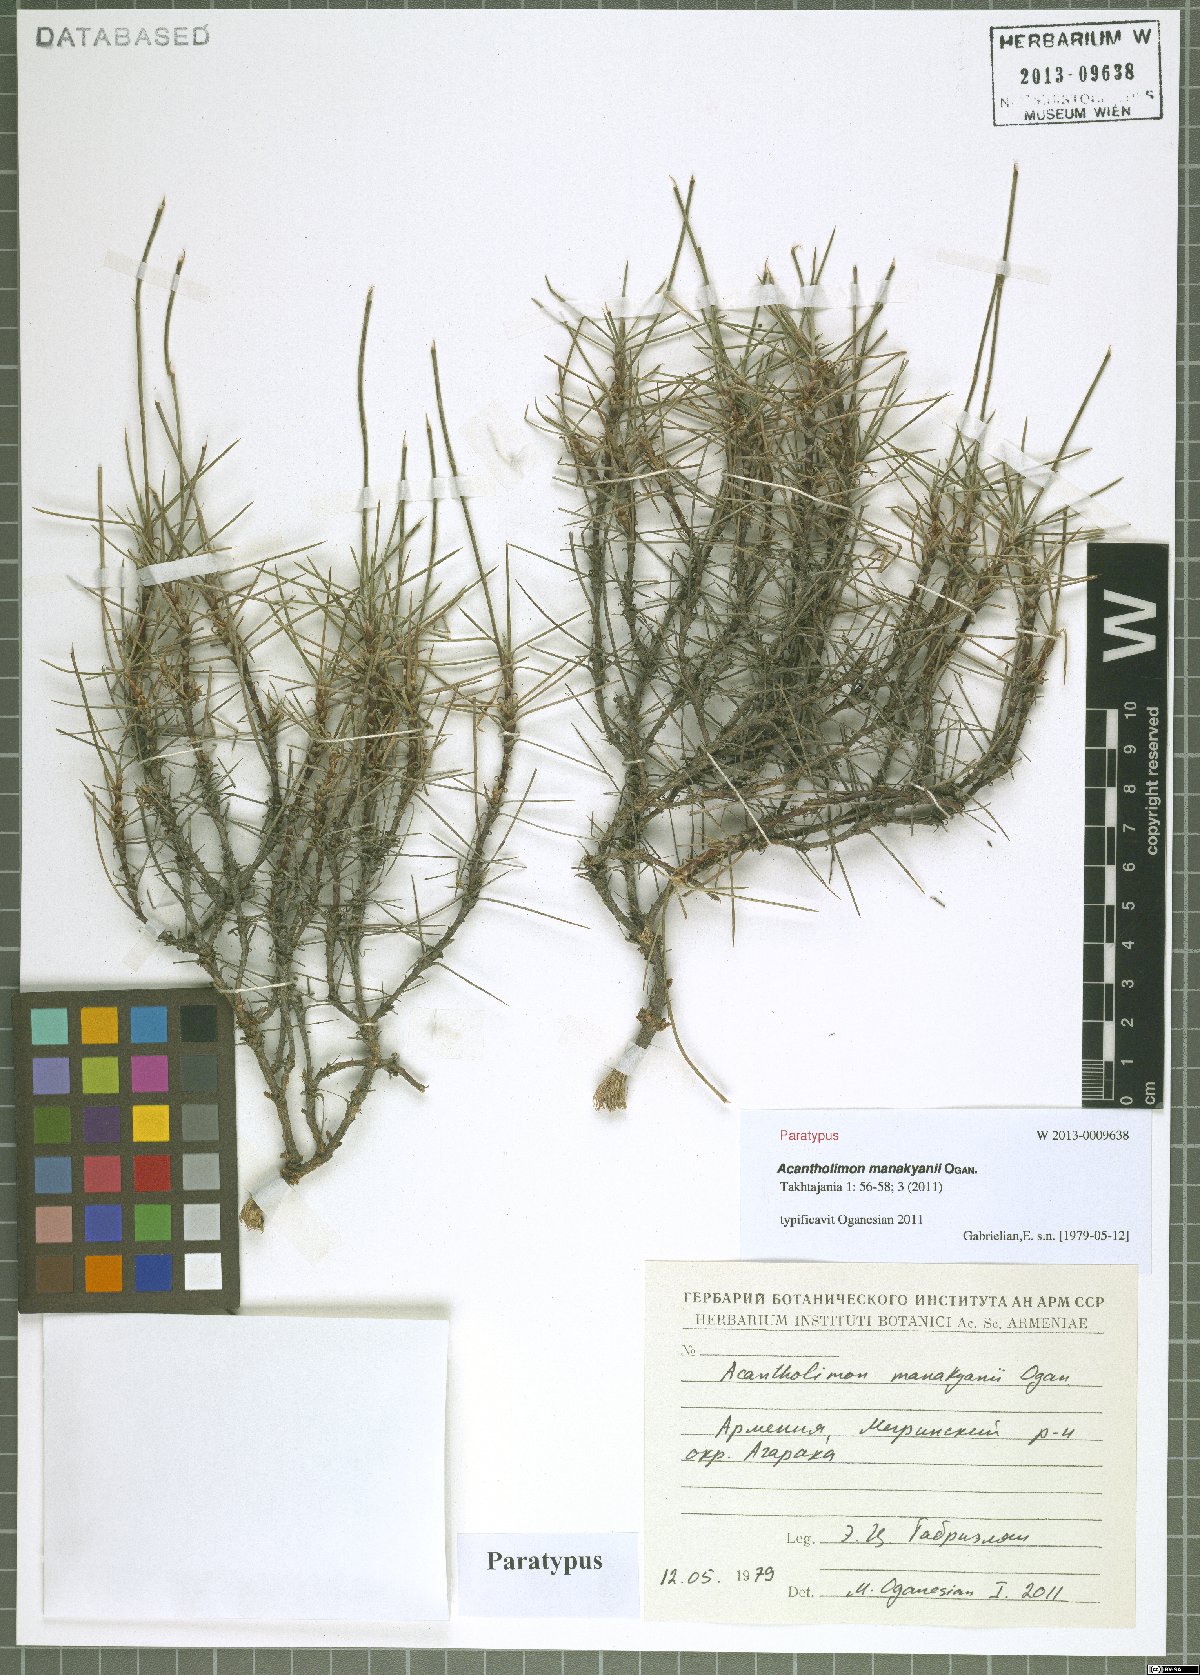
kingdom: Plantae
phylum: Tracheophyta
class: Magnoliopsida
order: Caryophyllales
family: Plumbaginaceae
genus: Acantholimon
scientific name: Acantholimon manakyanii
